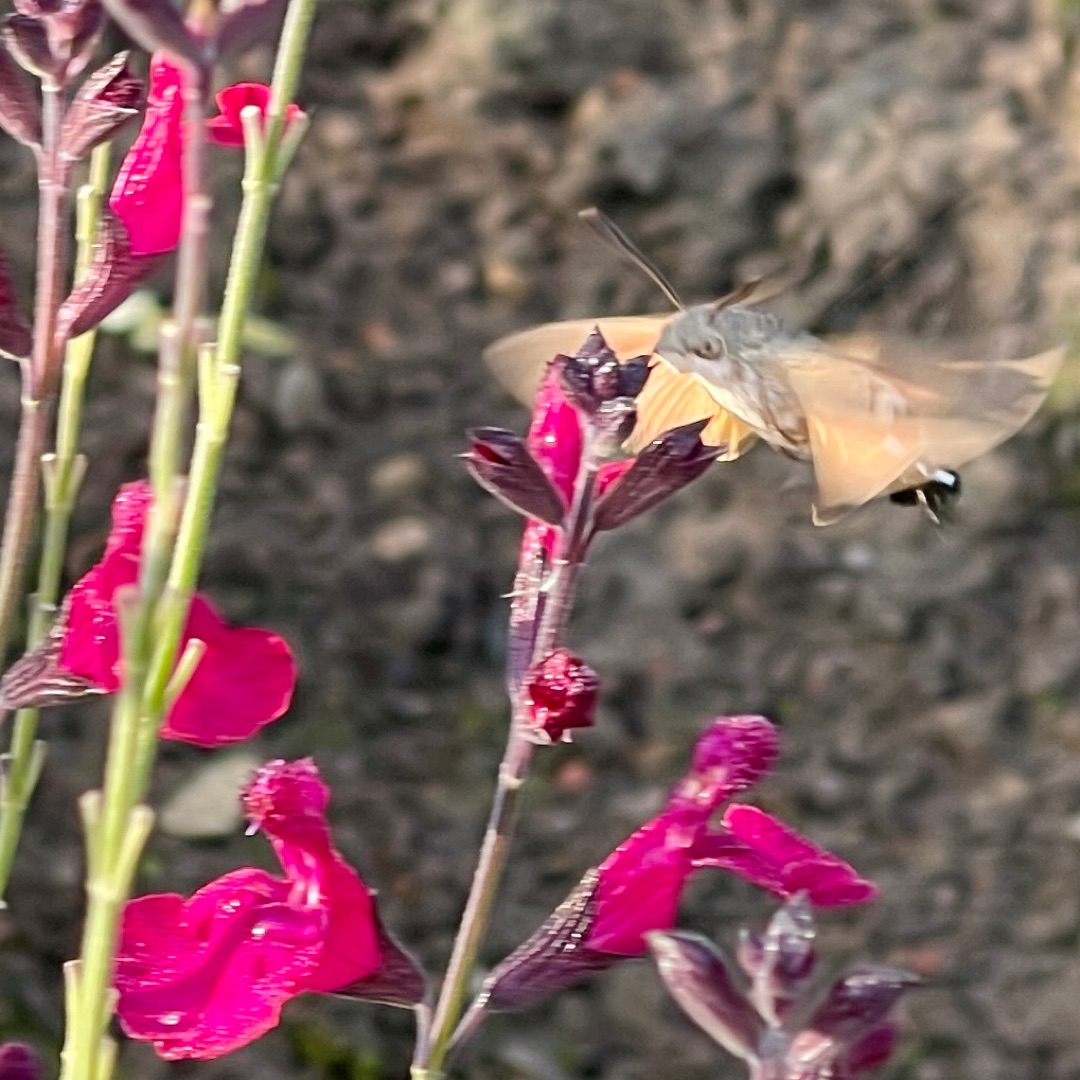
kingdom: Animalia
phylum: Arthropoda
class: Insecta
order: Lepidoptera
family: Sphingidae
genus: Macroglossum
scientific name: Macroglossum stellatarum
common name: Duehale
